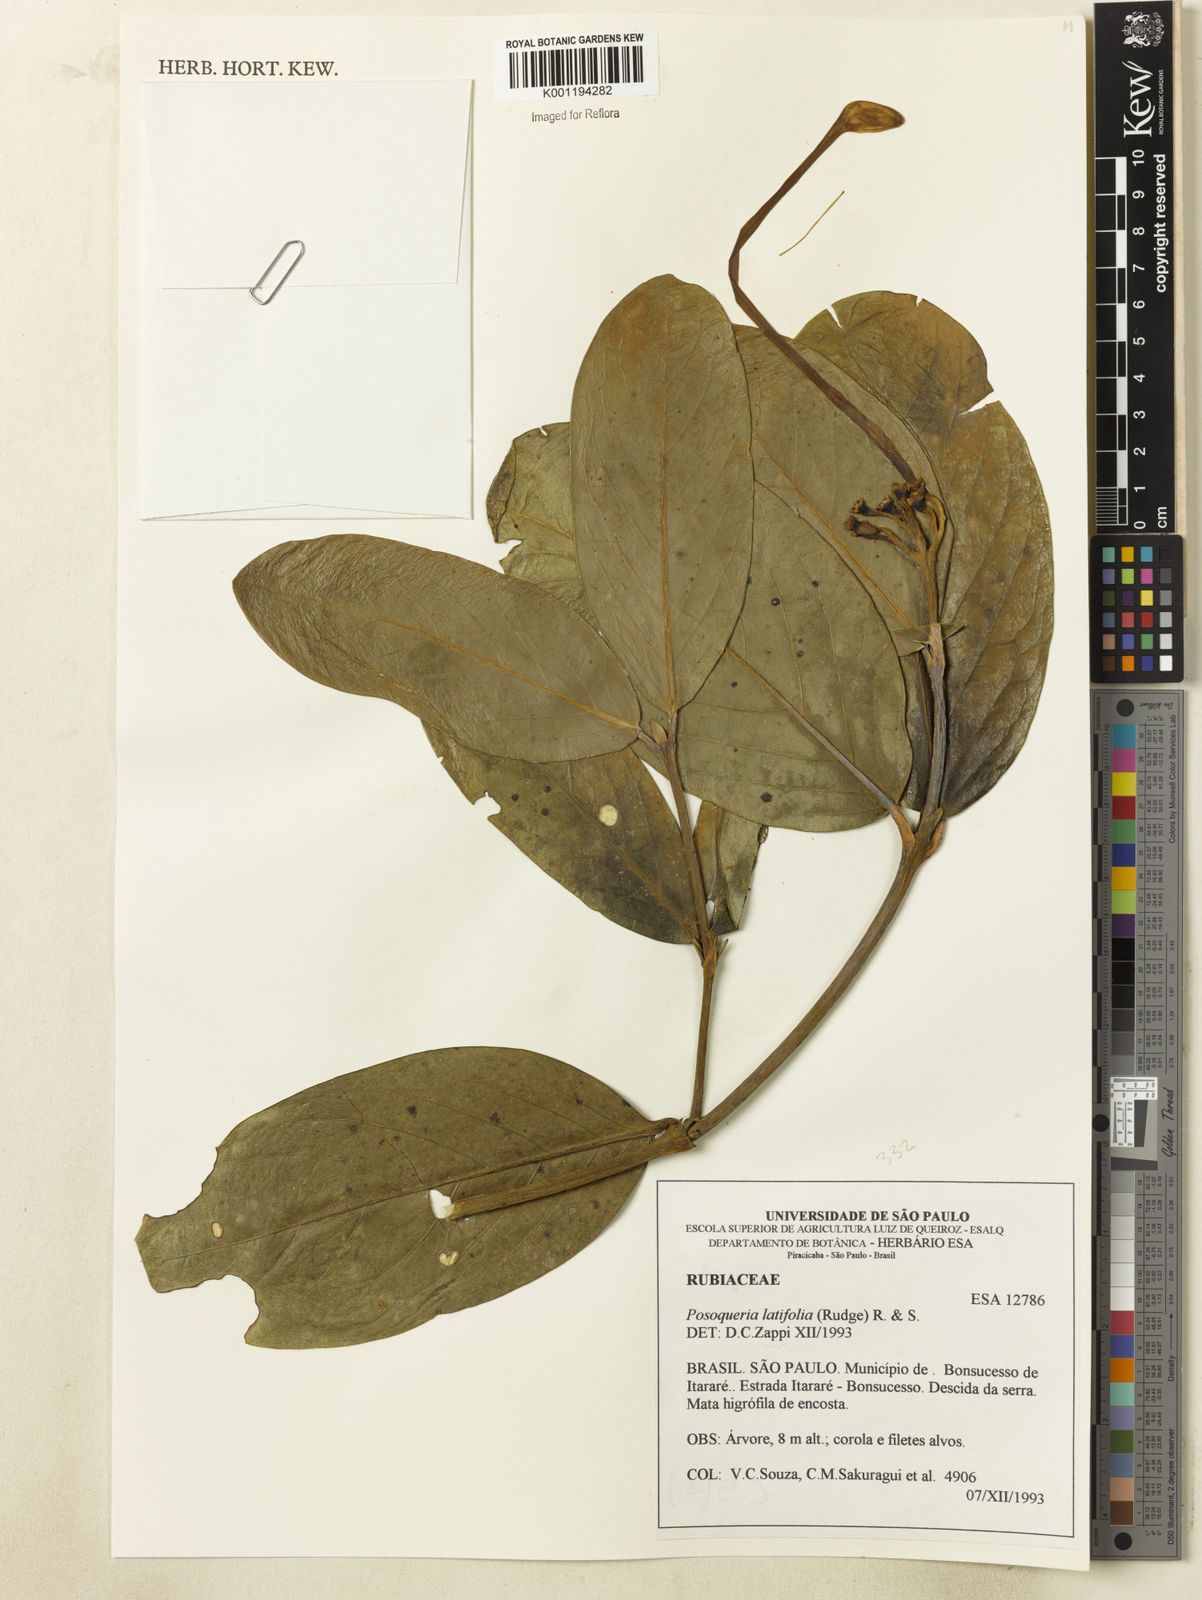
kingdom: Plantae
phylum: Tracheophyta
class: Magnoliopsida
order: Gentianales
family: Rubiaceae
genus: Posoqueria
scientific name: Posoqueria latifolia
